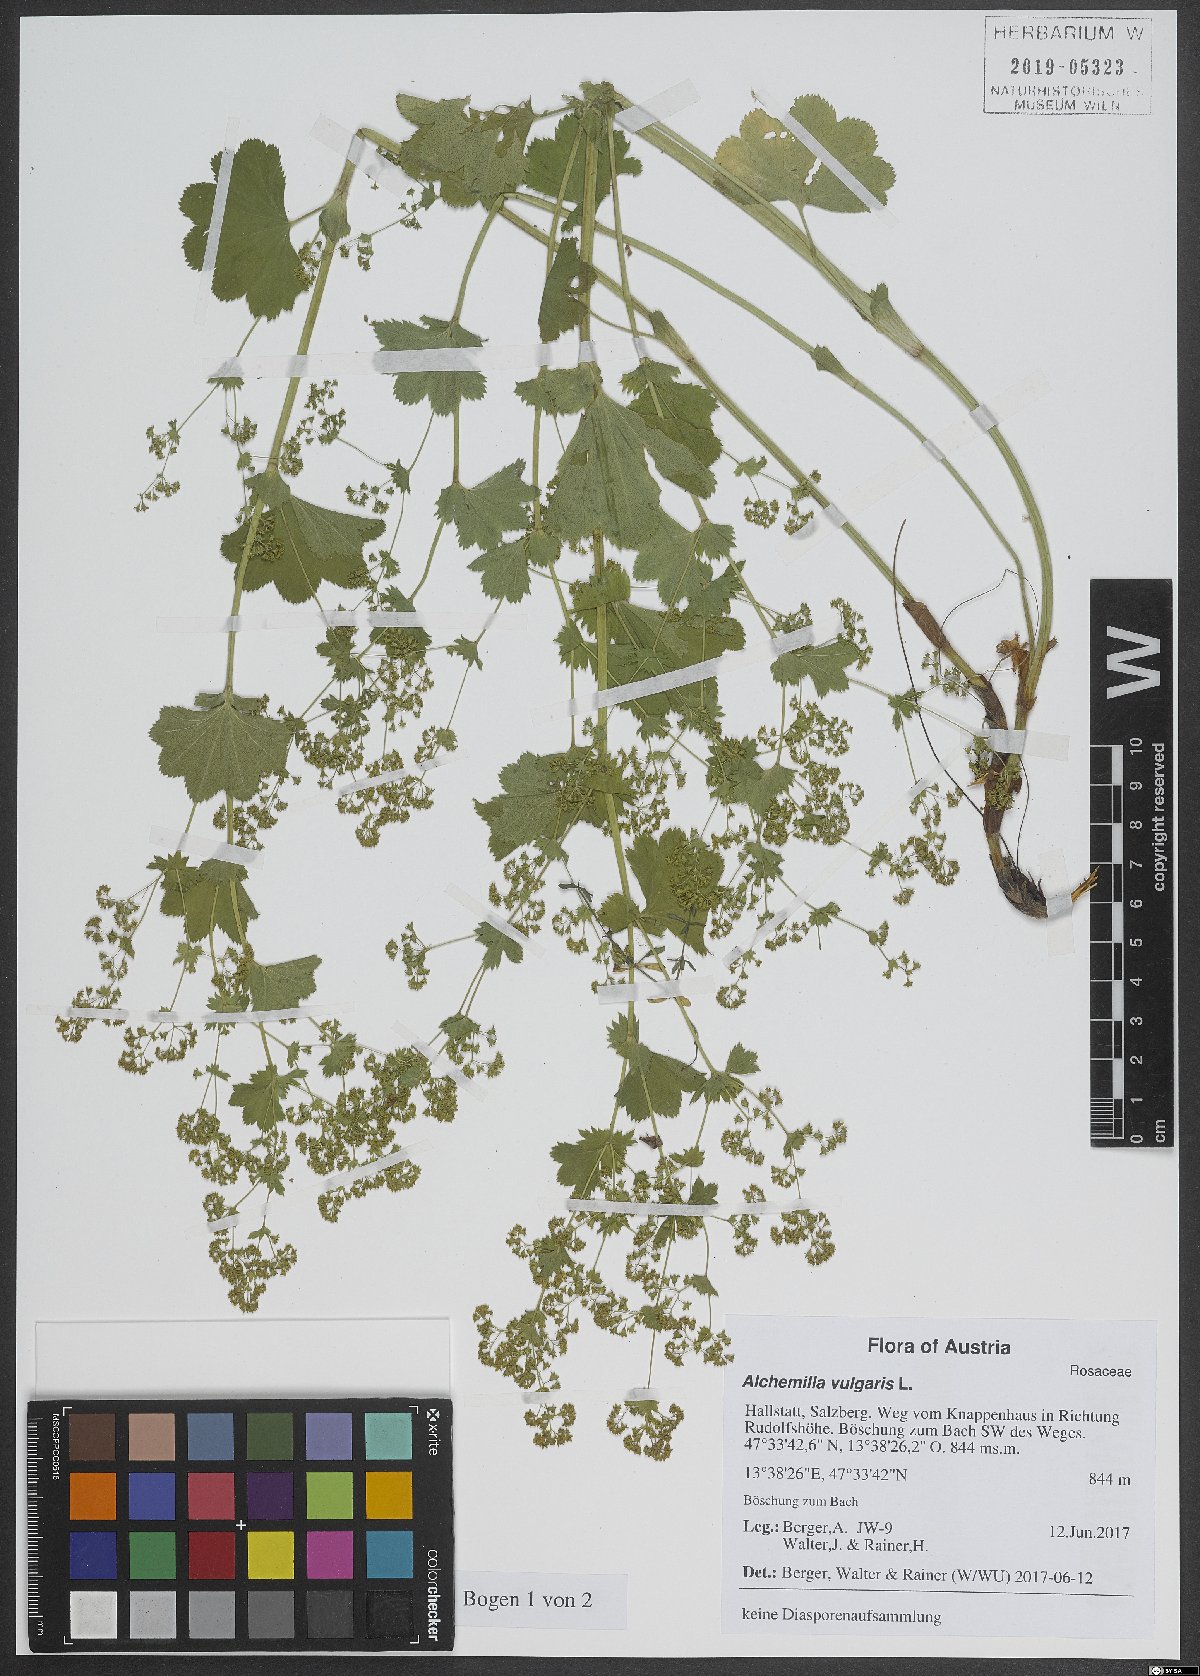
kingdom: Plantae
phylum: Tracheophyta
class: Magnoliopsida
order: Rosales
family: Rosaceae
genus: Alchemilla
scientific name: Alchemilla vulgaris
